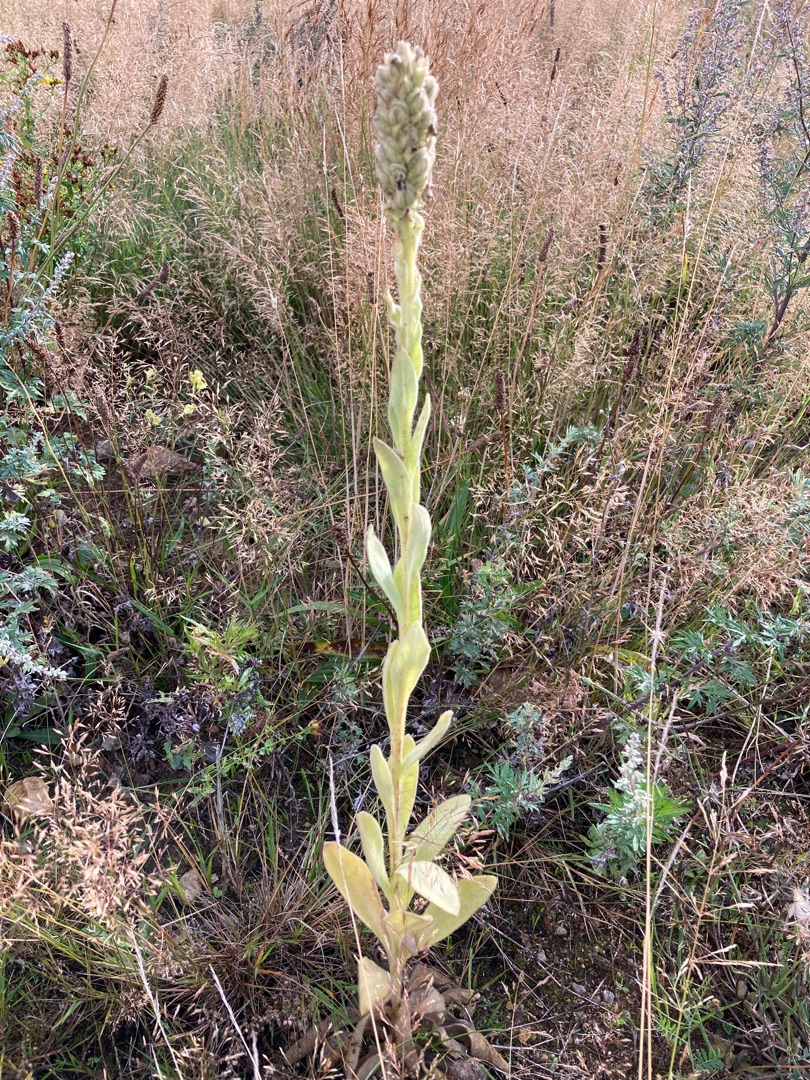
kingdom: Plantae
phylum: Tracheophyta
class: Magnoliopsida
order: Lamiales
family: Scrophulariaceae
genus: Verbascum
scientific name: Verbascum thapsus
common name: Filtbladet kongelys
